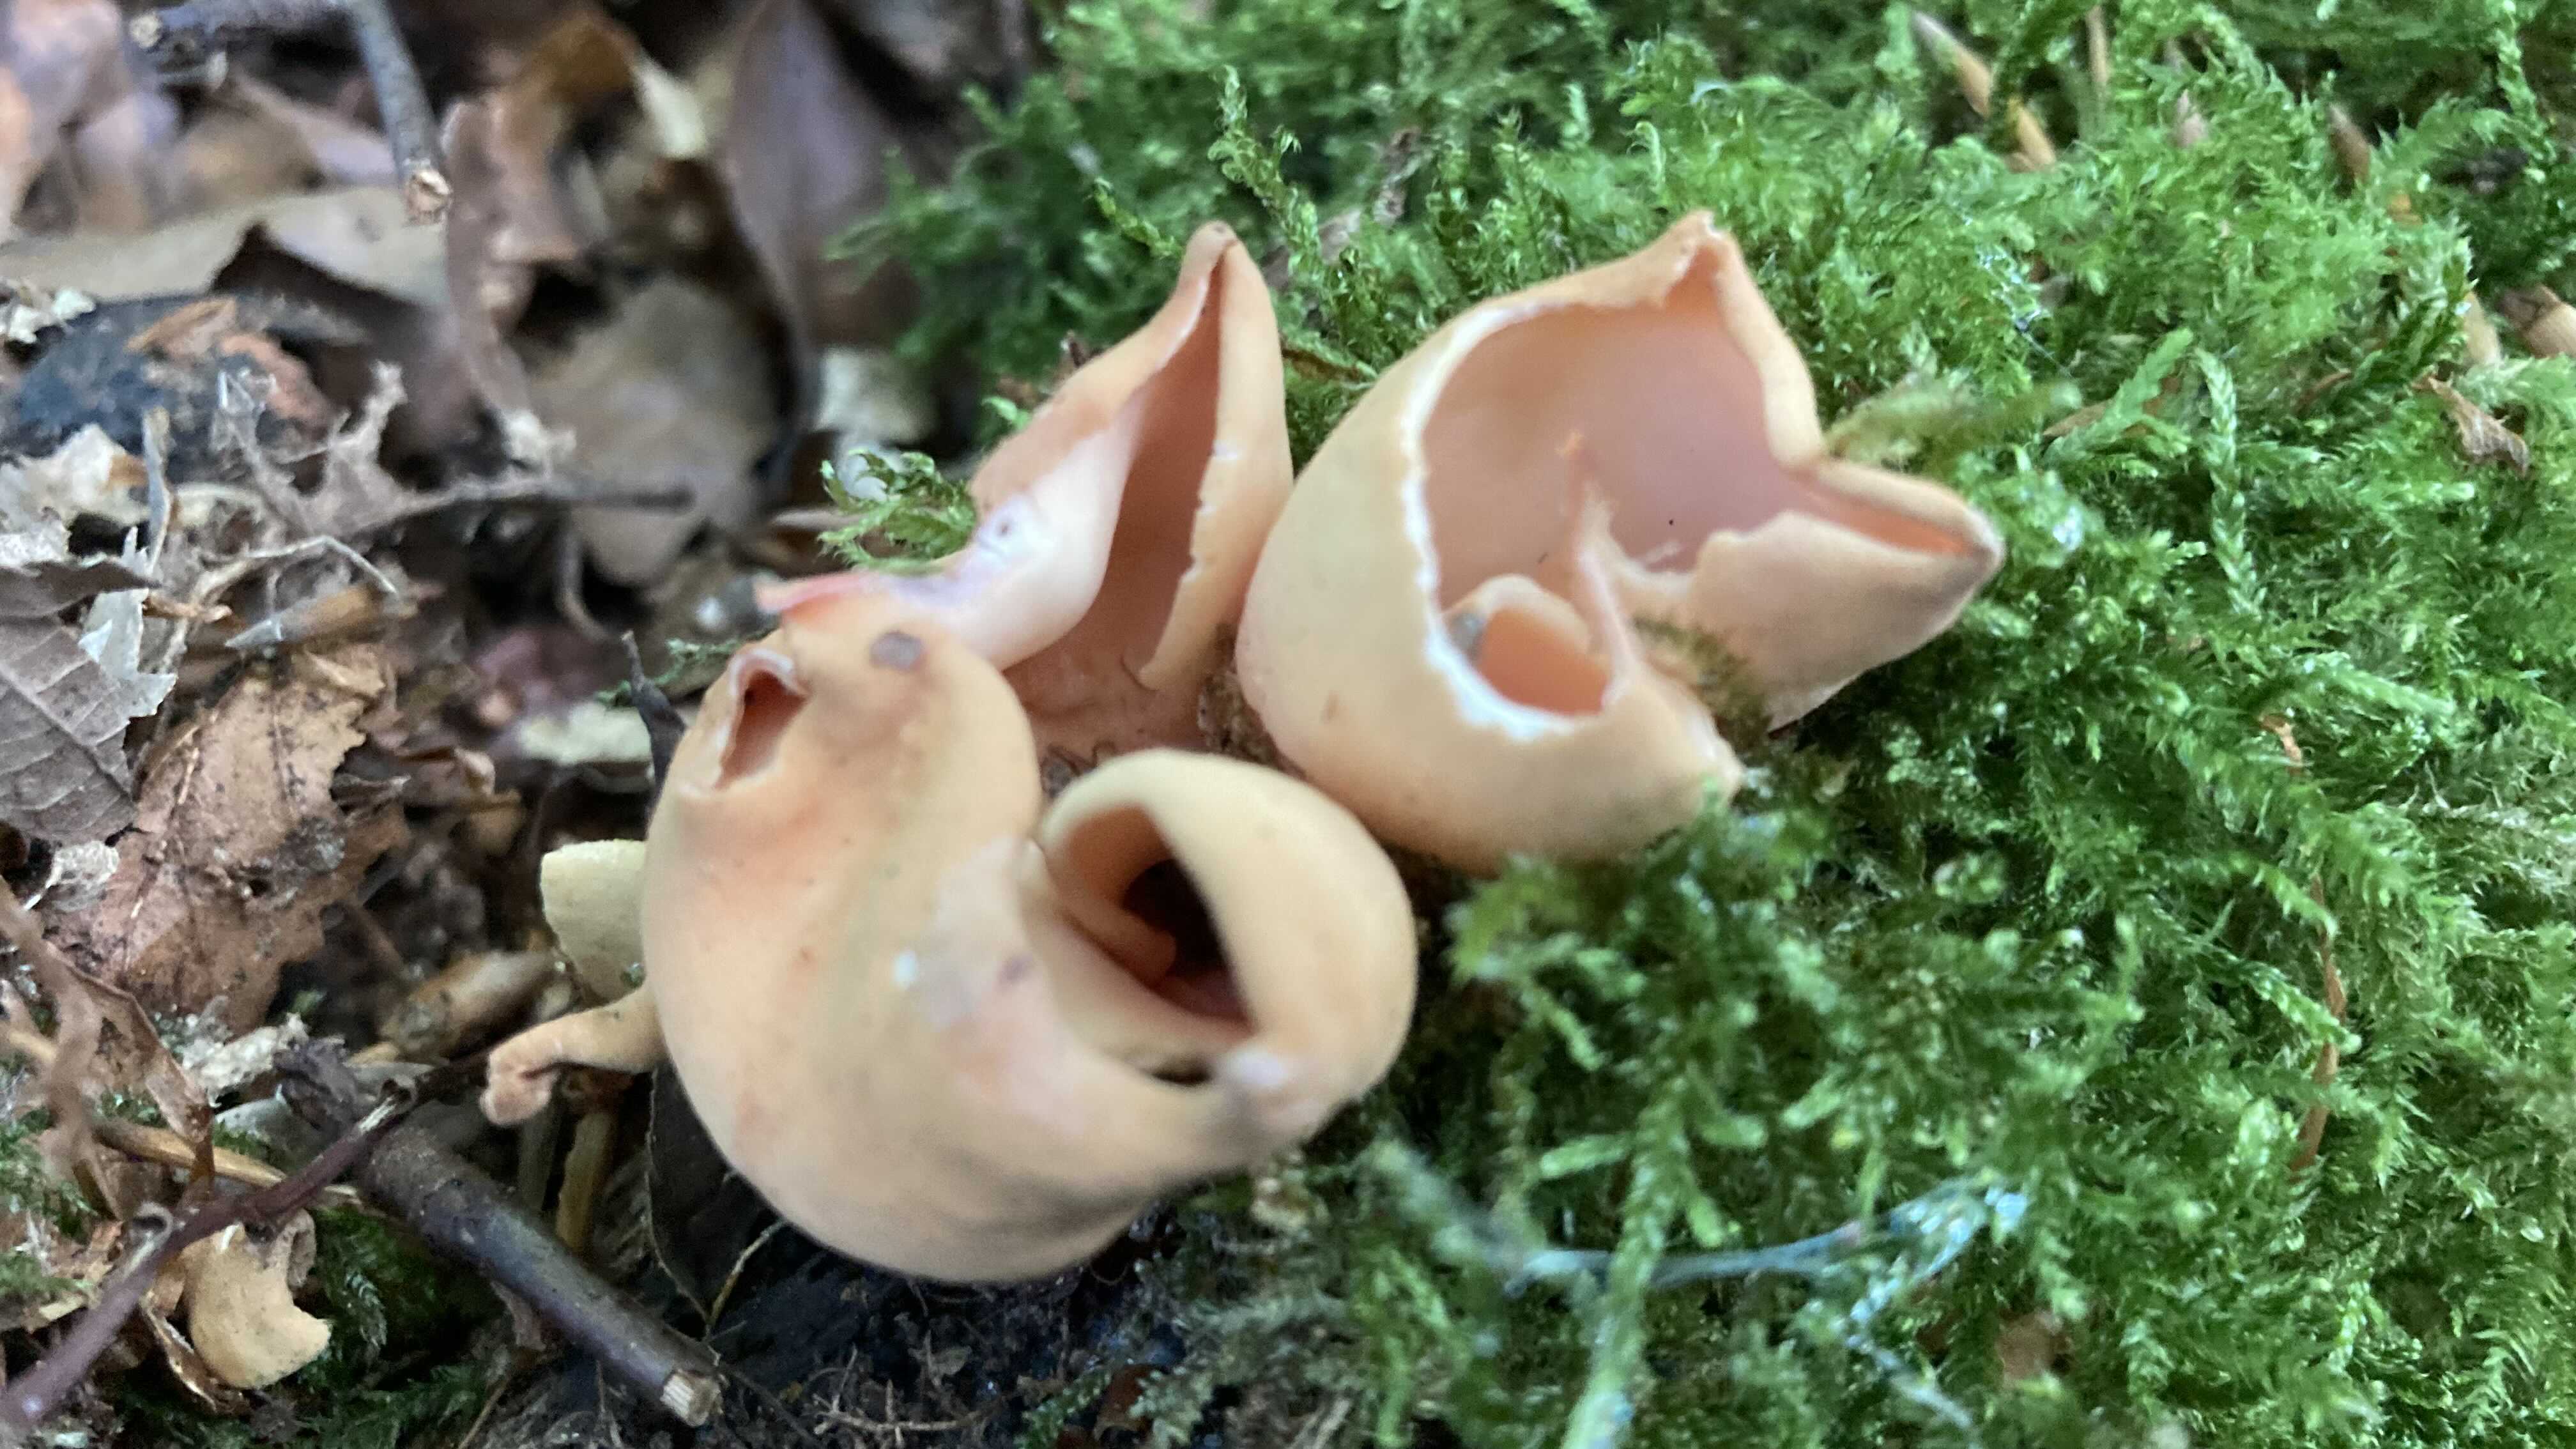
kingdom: Fungi
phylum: Ascomycota
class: Pezizomycetes
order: Pezizales
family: Otideaceae
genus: Otidea
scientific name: Otidea onotica
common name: æsel-ørebæger
